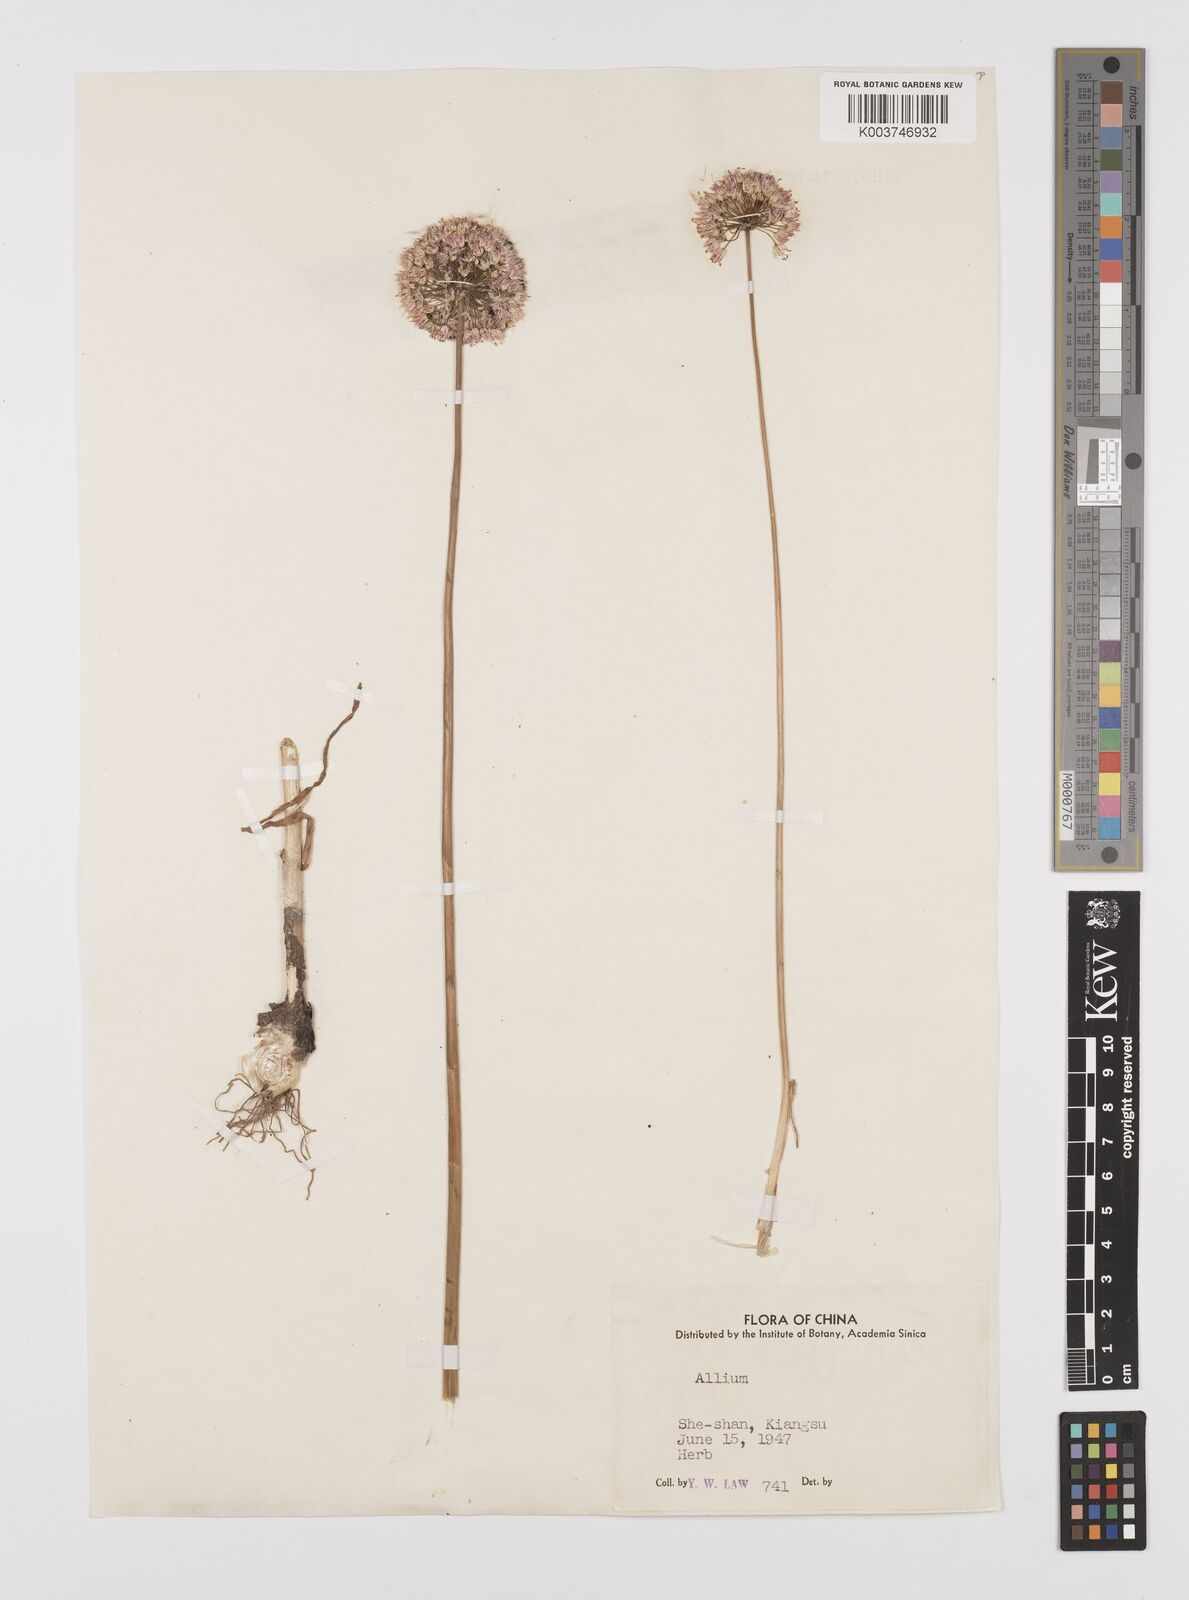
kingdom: Plantae
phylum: Tracheophyta
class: Liliopsida
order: Asparagales
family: Amaryllidaceae
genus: Allium
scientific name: Allium
